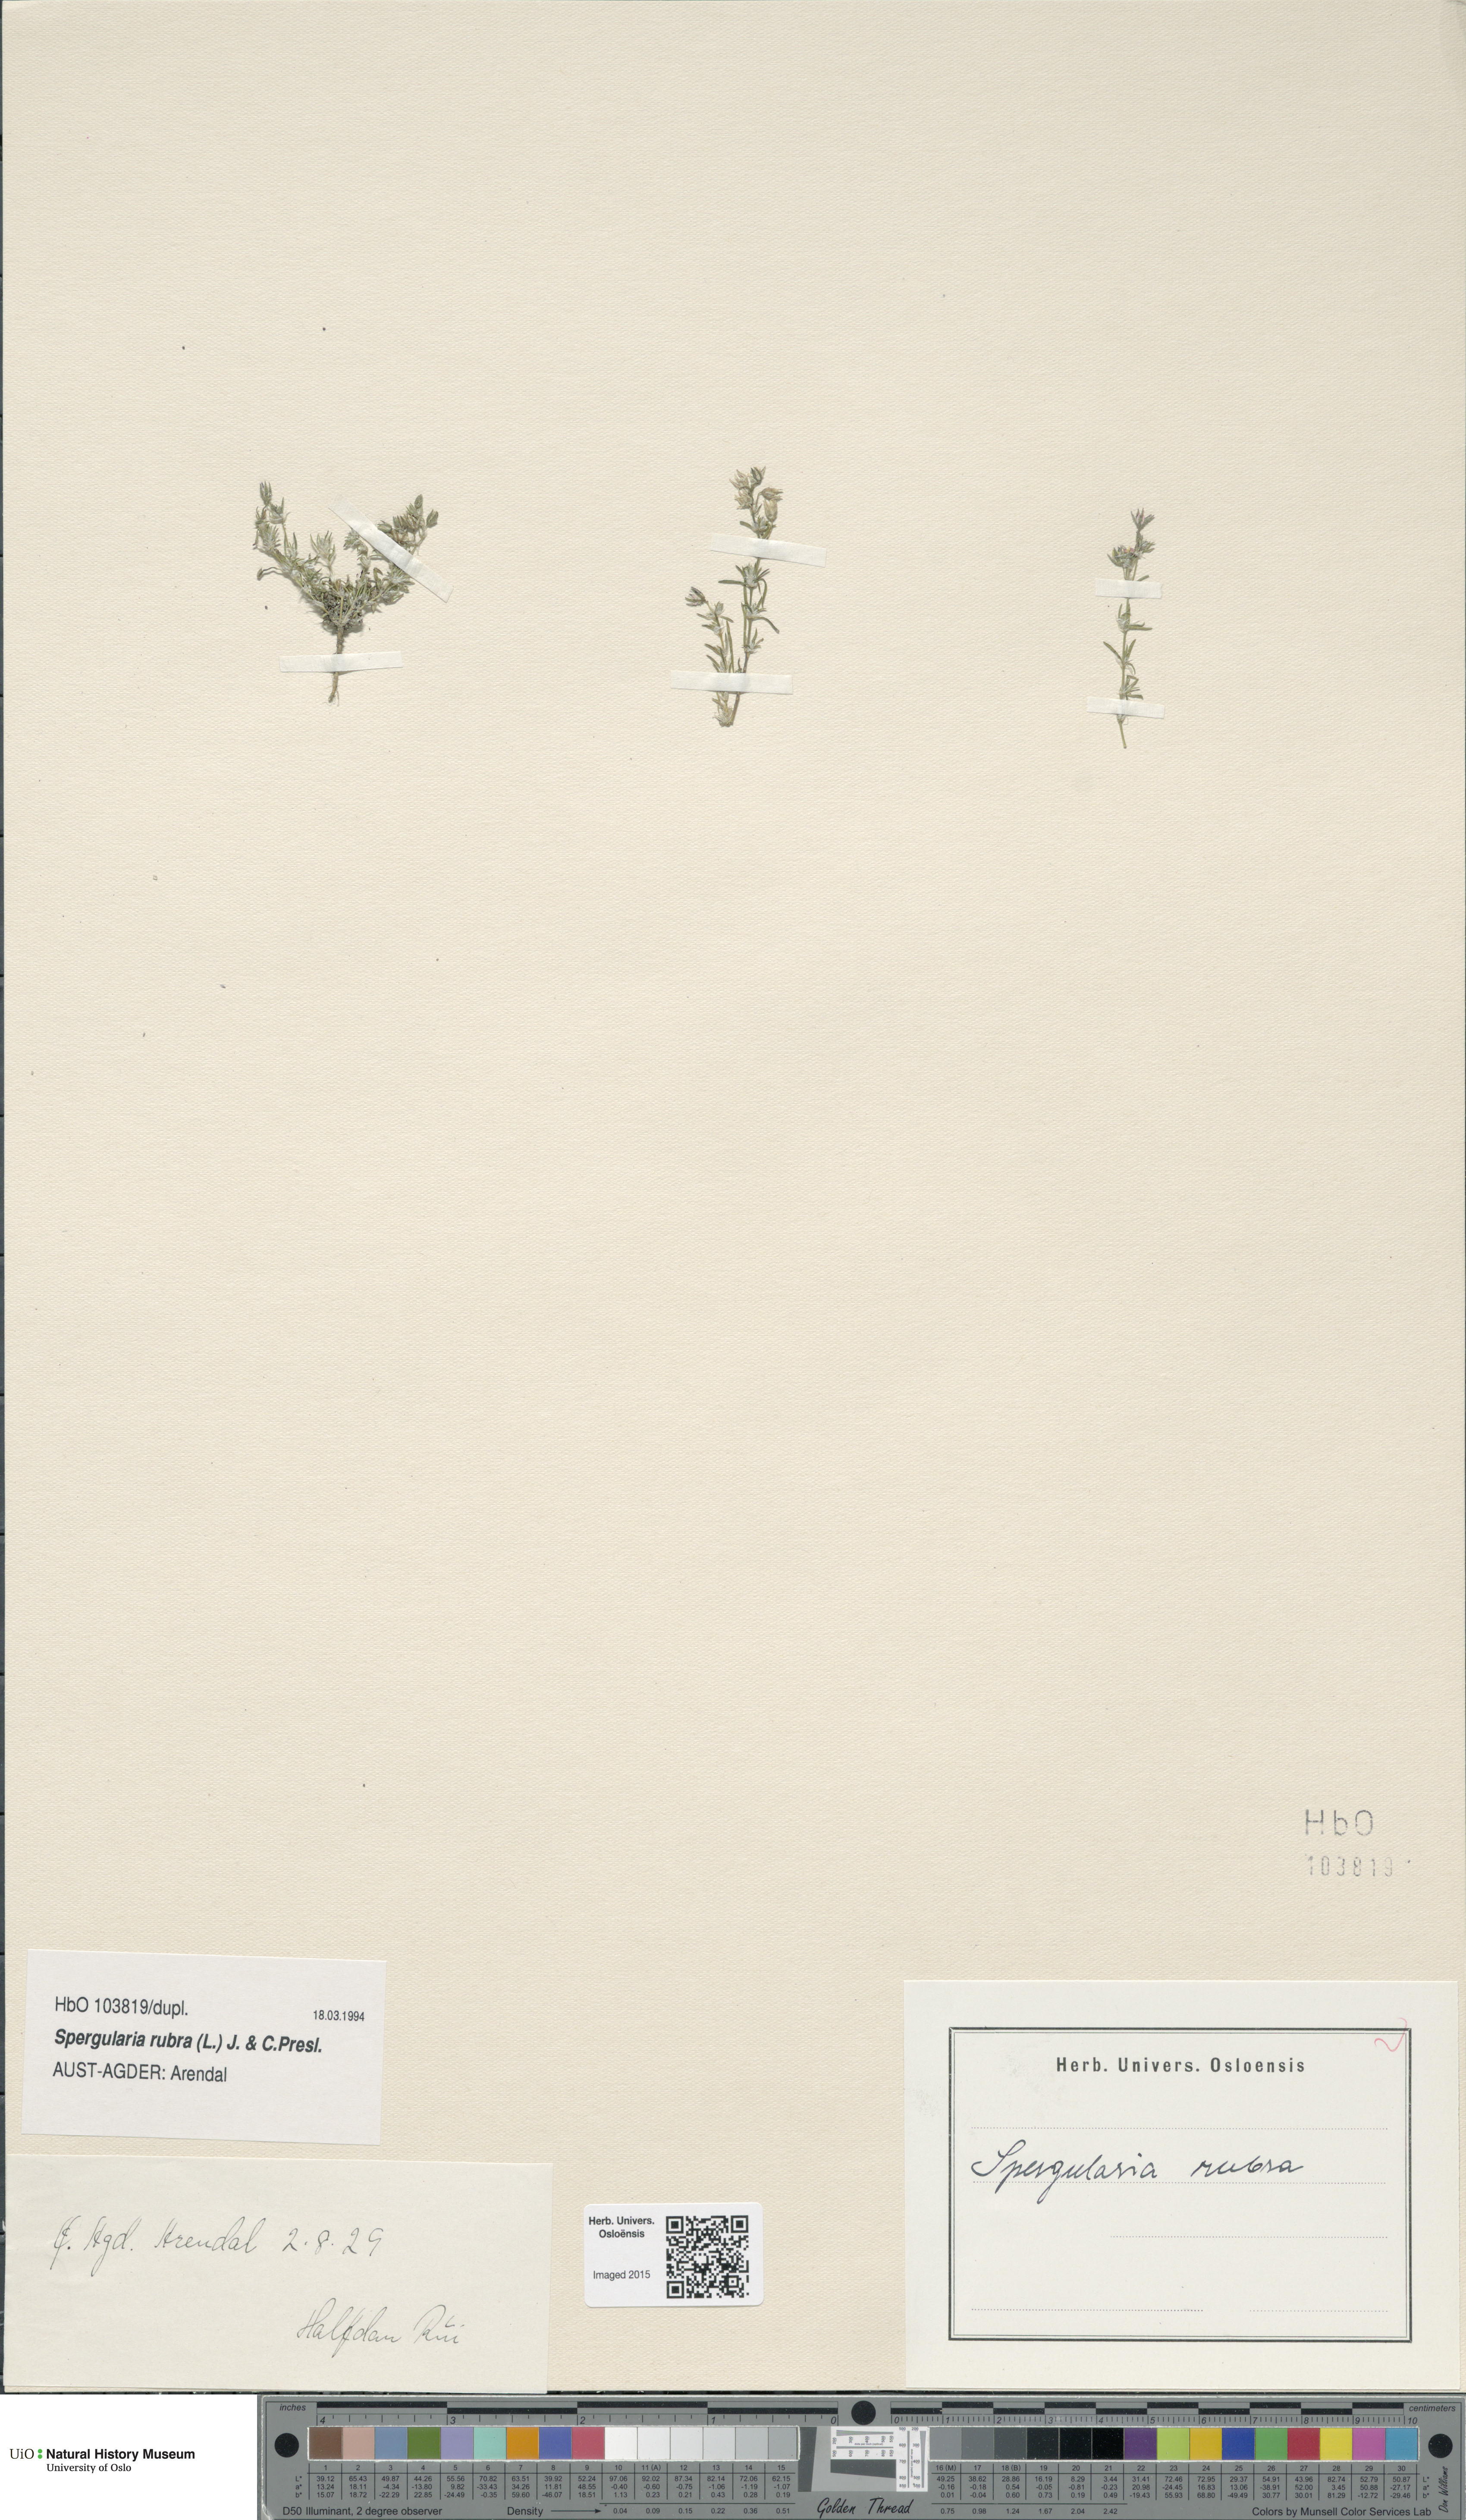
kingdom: Plantae
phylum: Tracheophyta
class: Magnoliopsida
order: Caryophyllales
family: Caryophyllaceae
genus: Spergularia
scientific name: Spergularia rubra
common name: Red sand-spurrey
